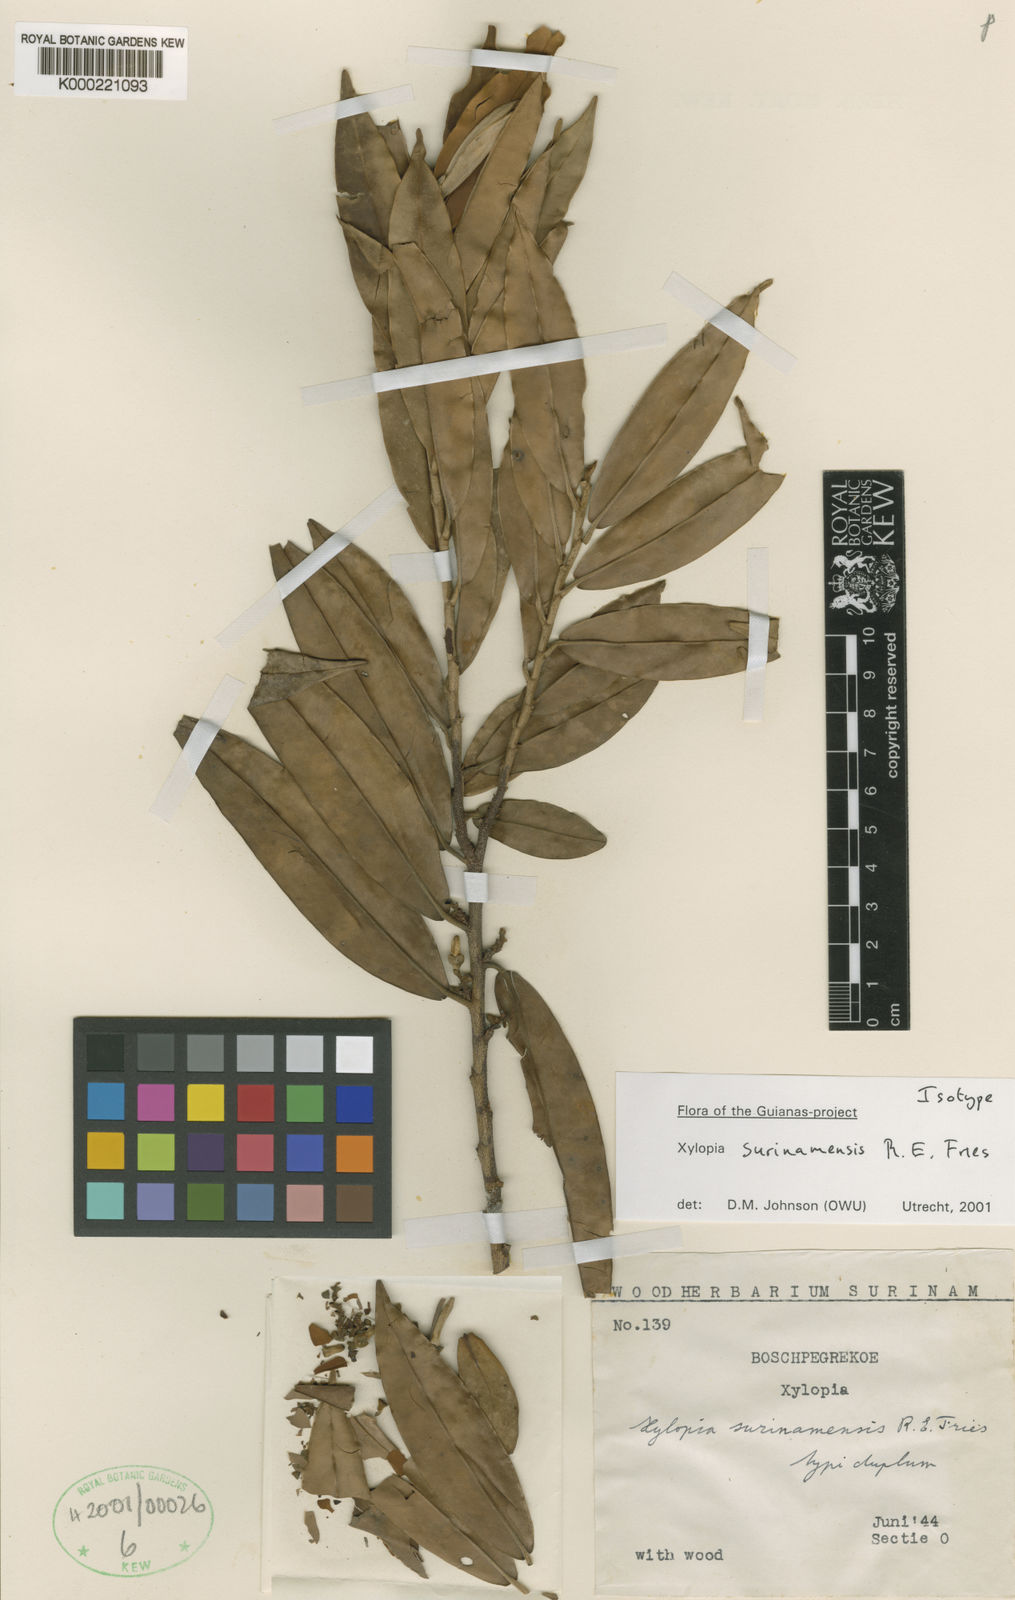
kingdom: Plantae
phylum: Tracheophyta
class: Magnoliopsida
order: Magnoliales
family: Annonaceae
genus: Xylopia
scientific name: Xylopia surinamensis
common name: Black wepopi
